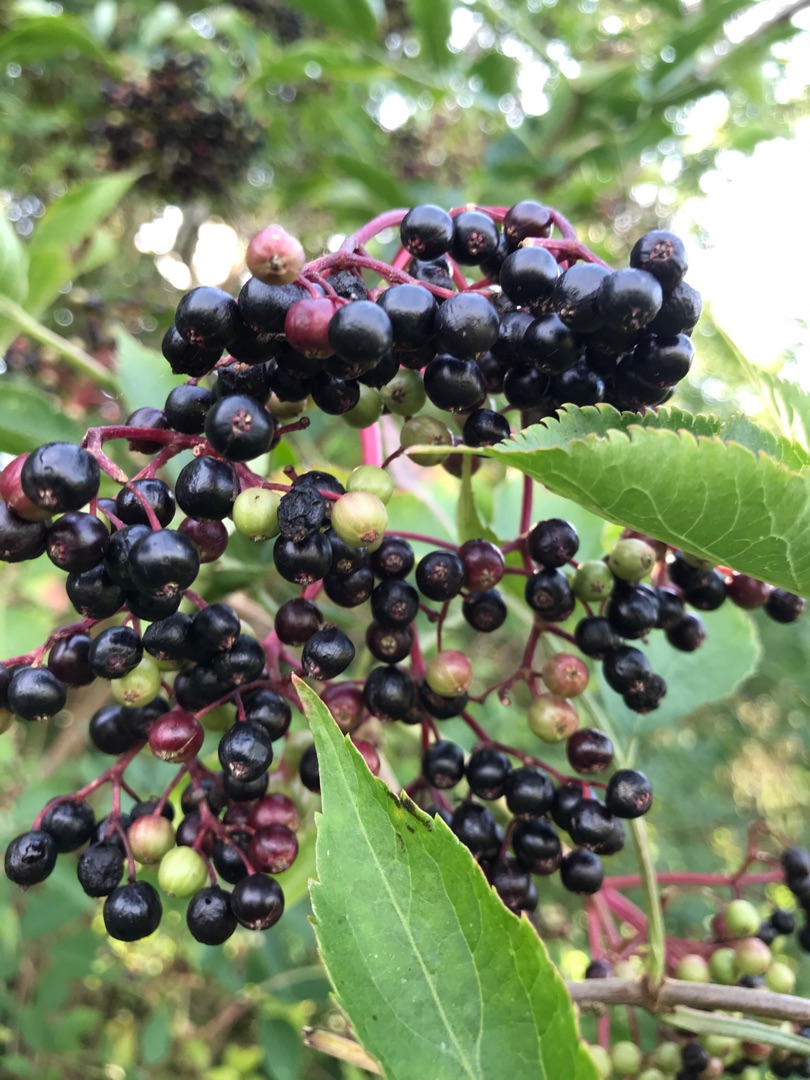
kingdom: Plantae
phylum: Tracheophyta
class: Magnoliopsida
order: Dipsacales
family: Viburnaceae
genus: Sambucus
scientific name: Sambucus nigra
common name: Almindelig hyld
